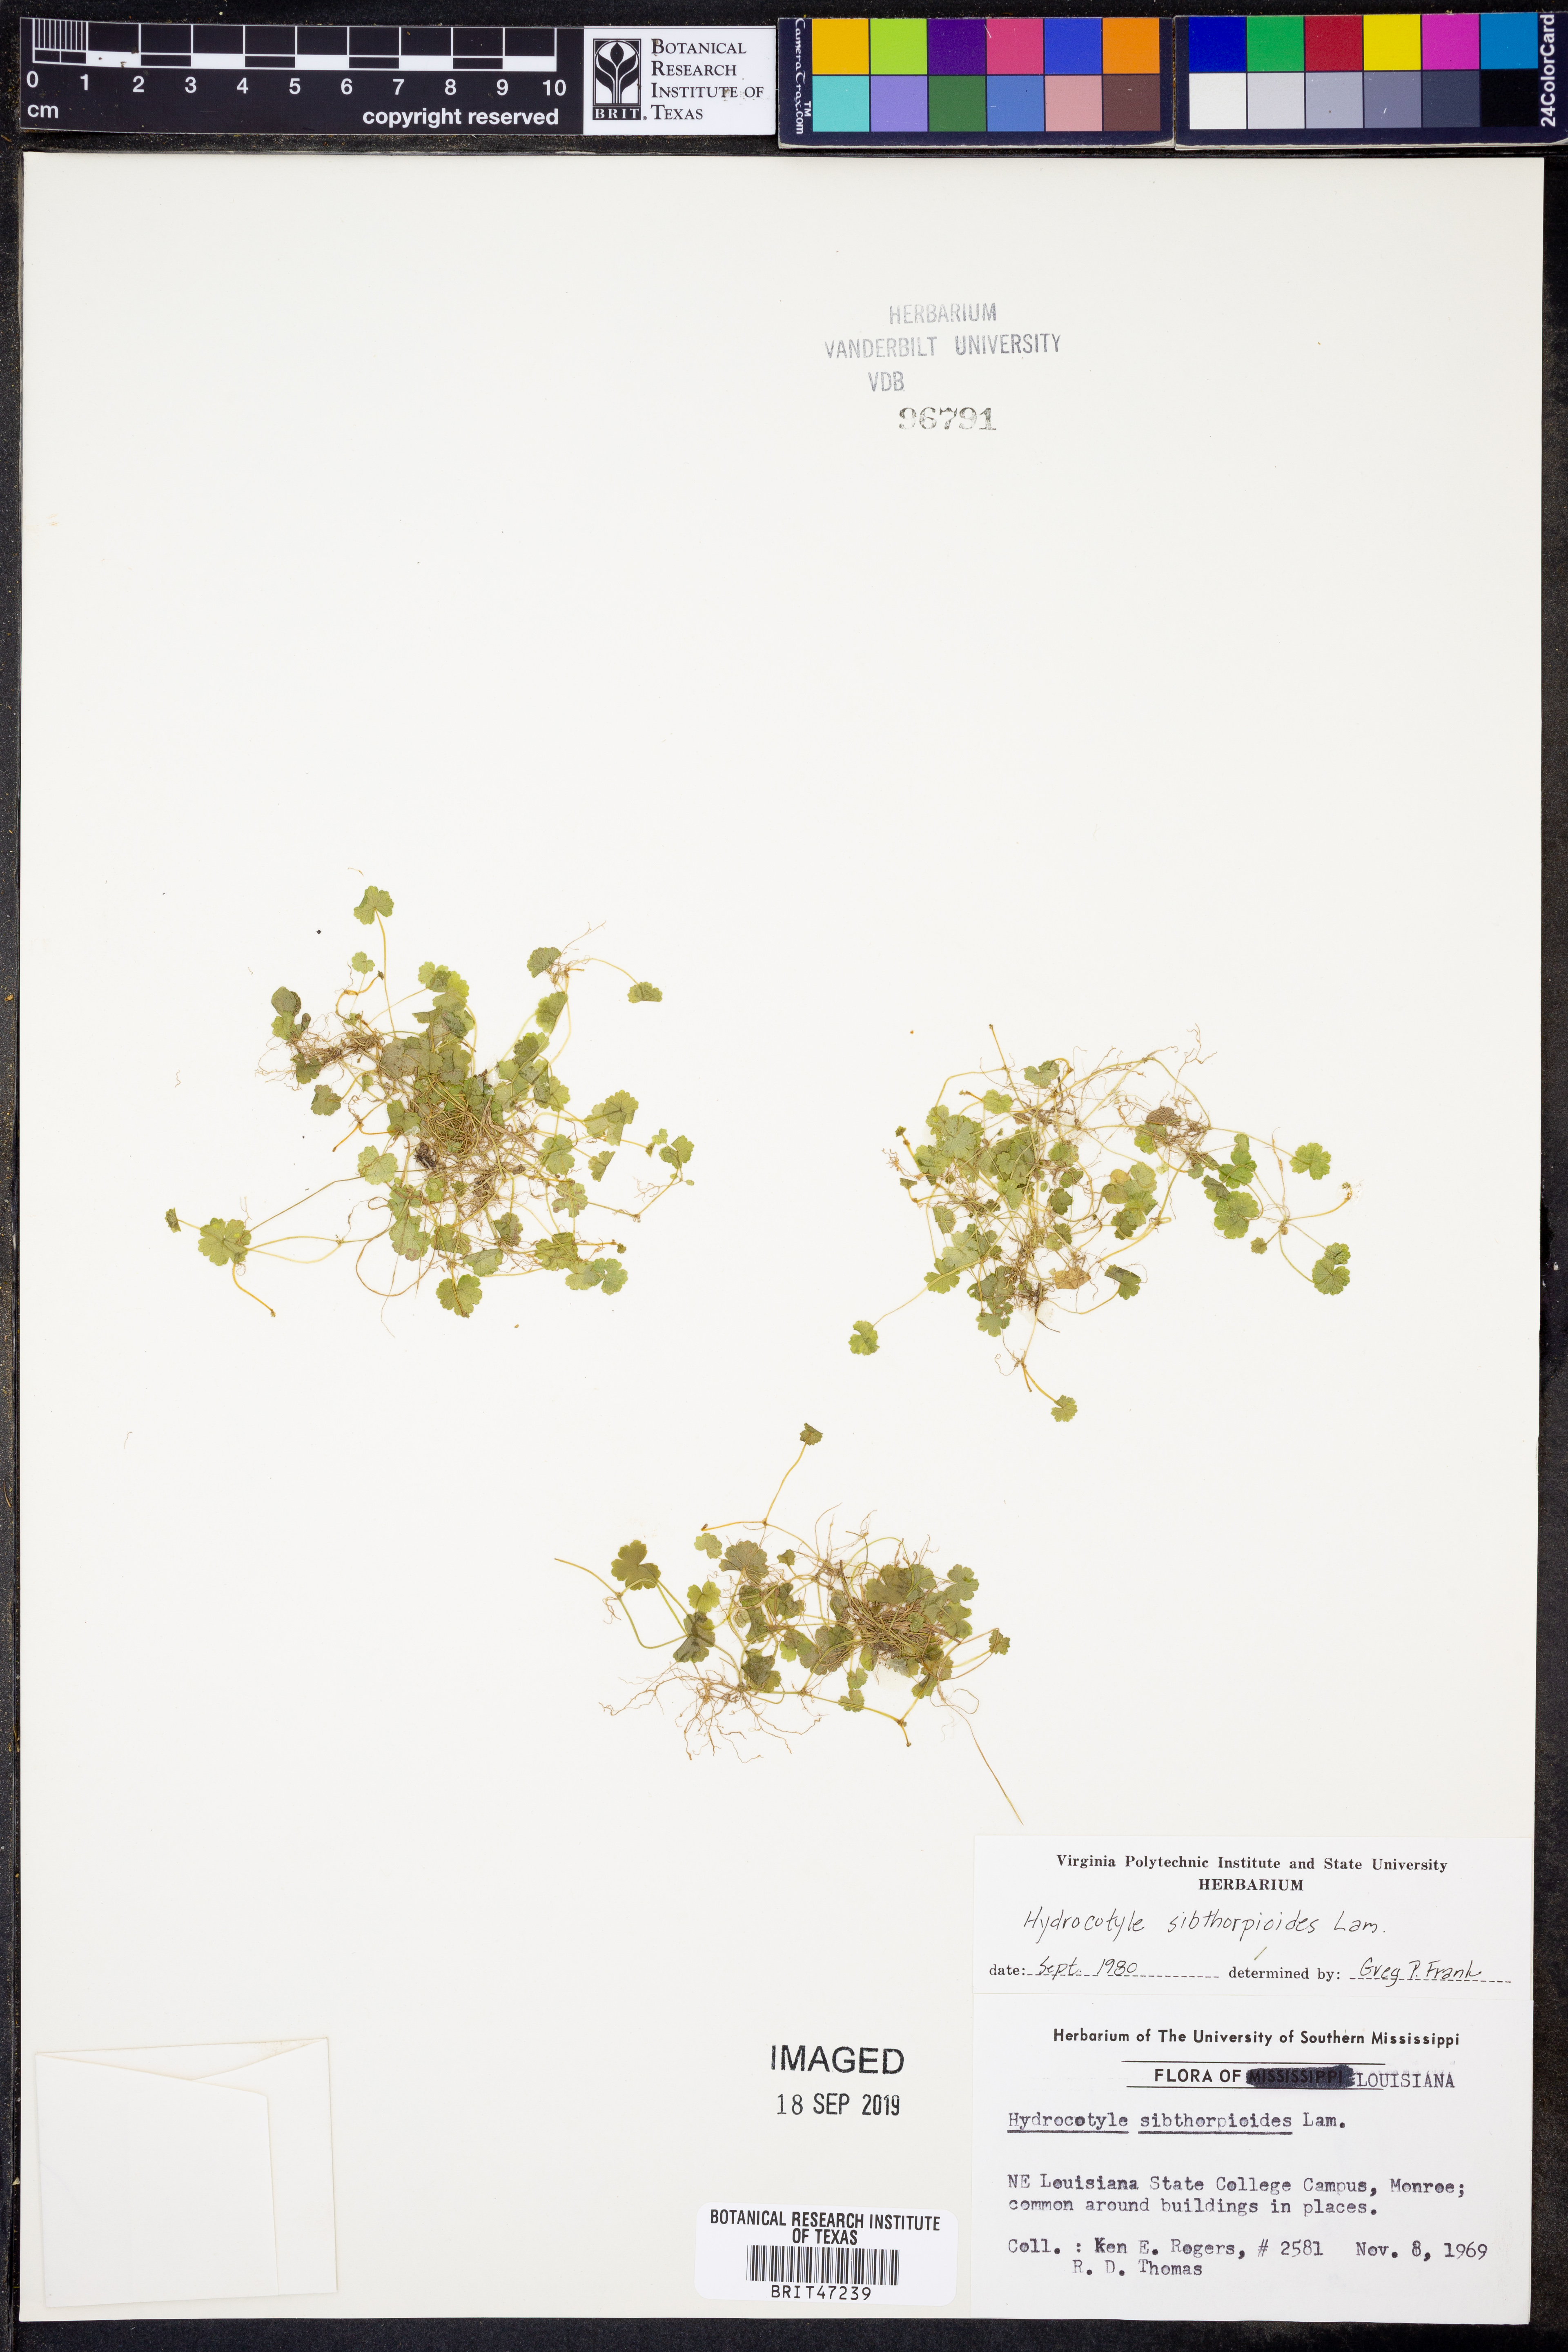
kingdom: Plantae
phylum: Tracheophyta
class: Magnoliopsida
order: Apiales
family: Araliaceae
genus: Hydrocotyle
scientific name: Hydrocotyle sibthorpioides
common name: Lawn marshpennywort
